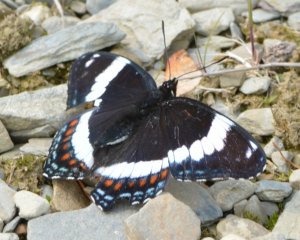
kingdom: Animalia
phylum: Arthropoda
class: Insecta
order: Lepidoptera
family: Nymphalidae
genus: Limenitis
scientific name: Limenitis arthemis
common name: Red-spotted Admiral
